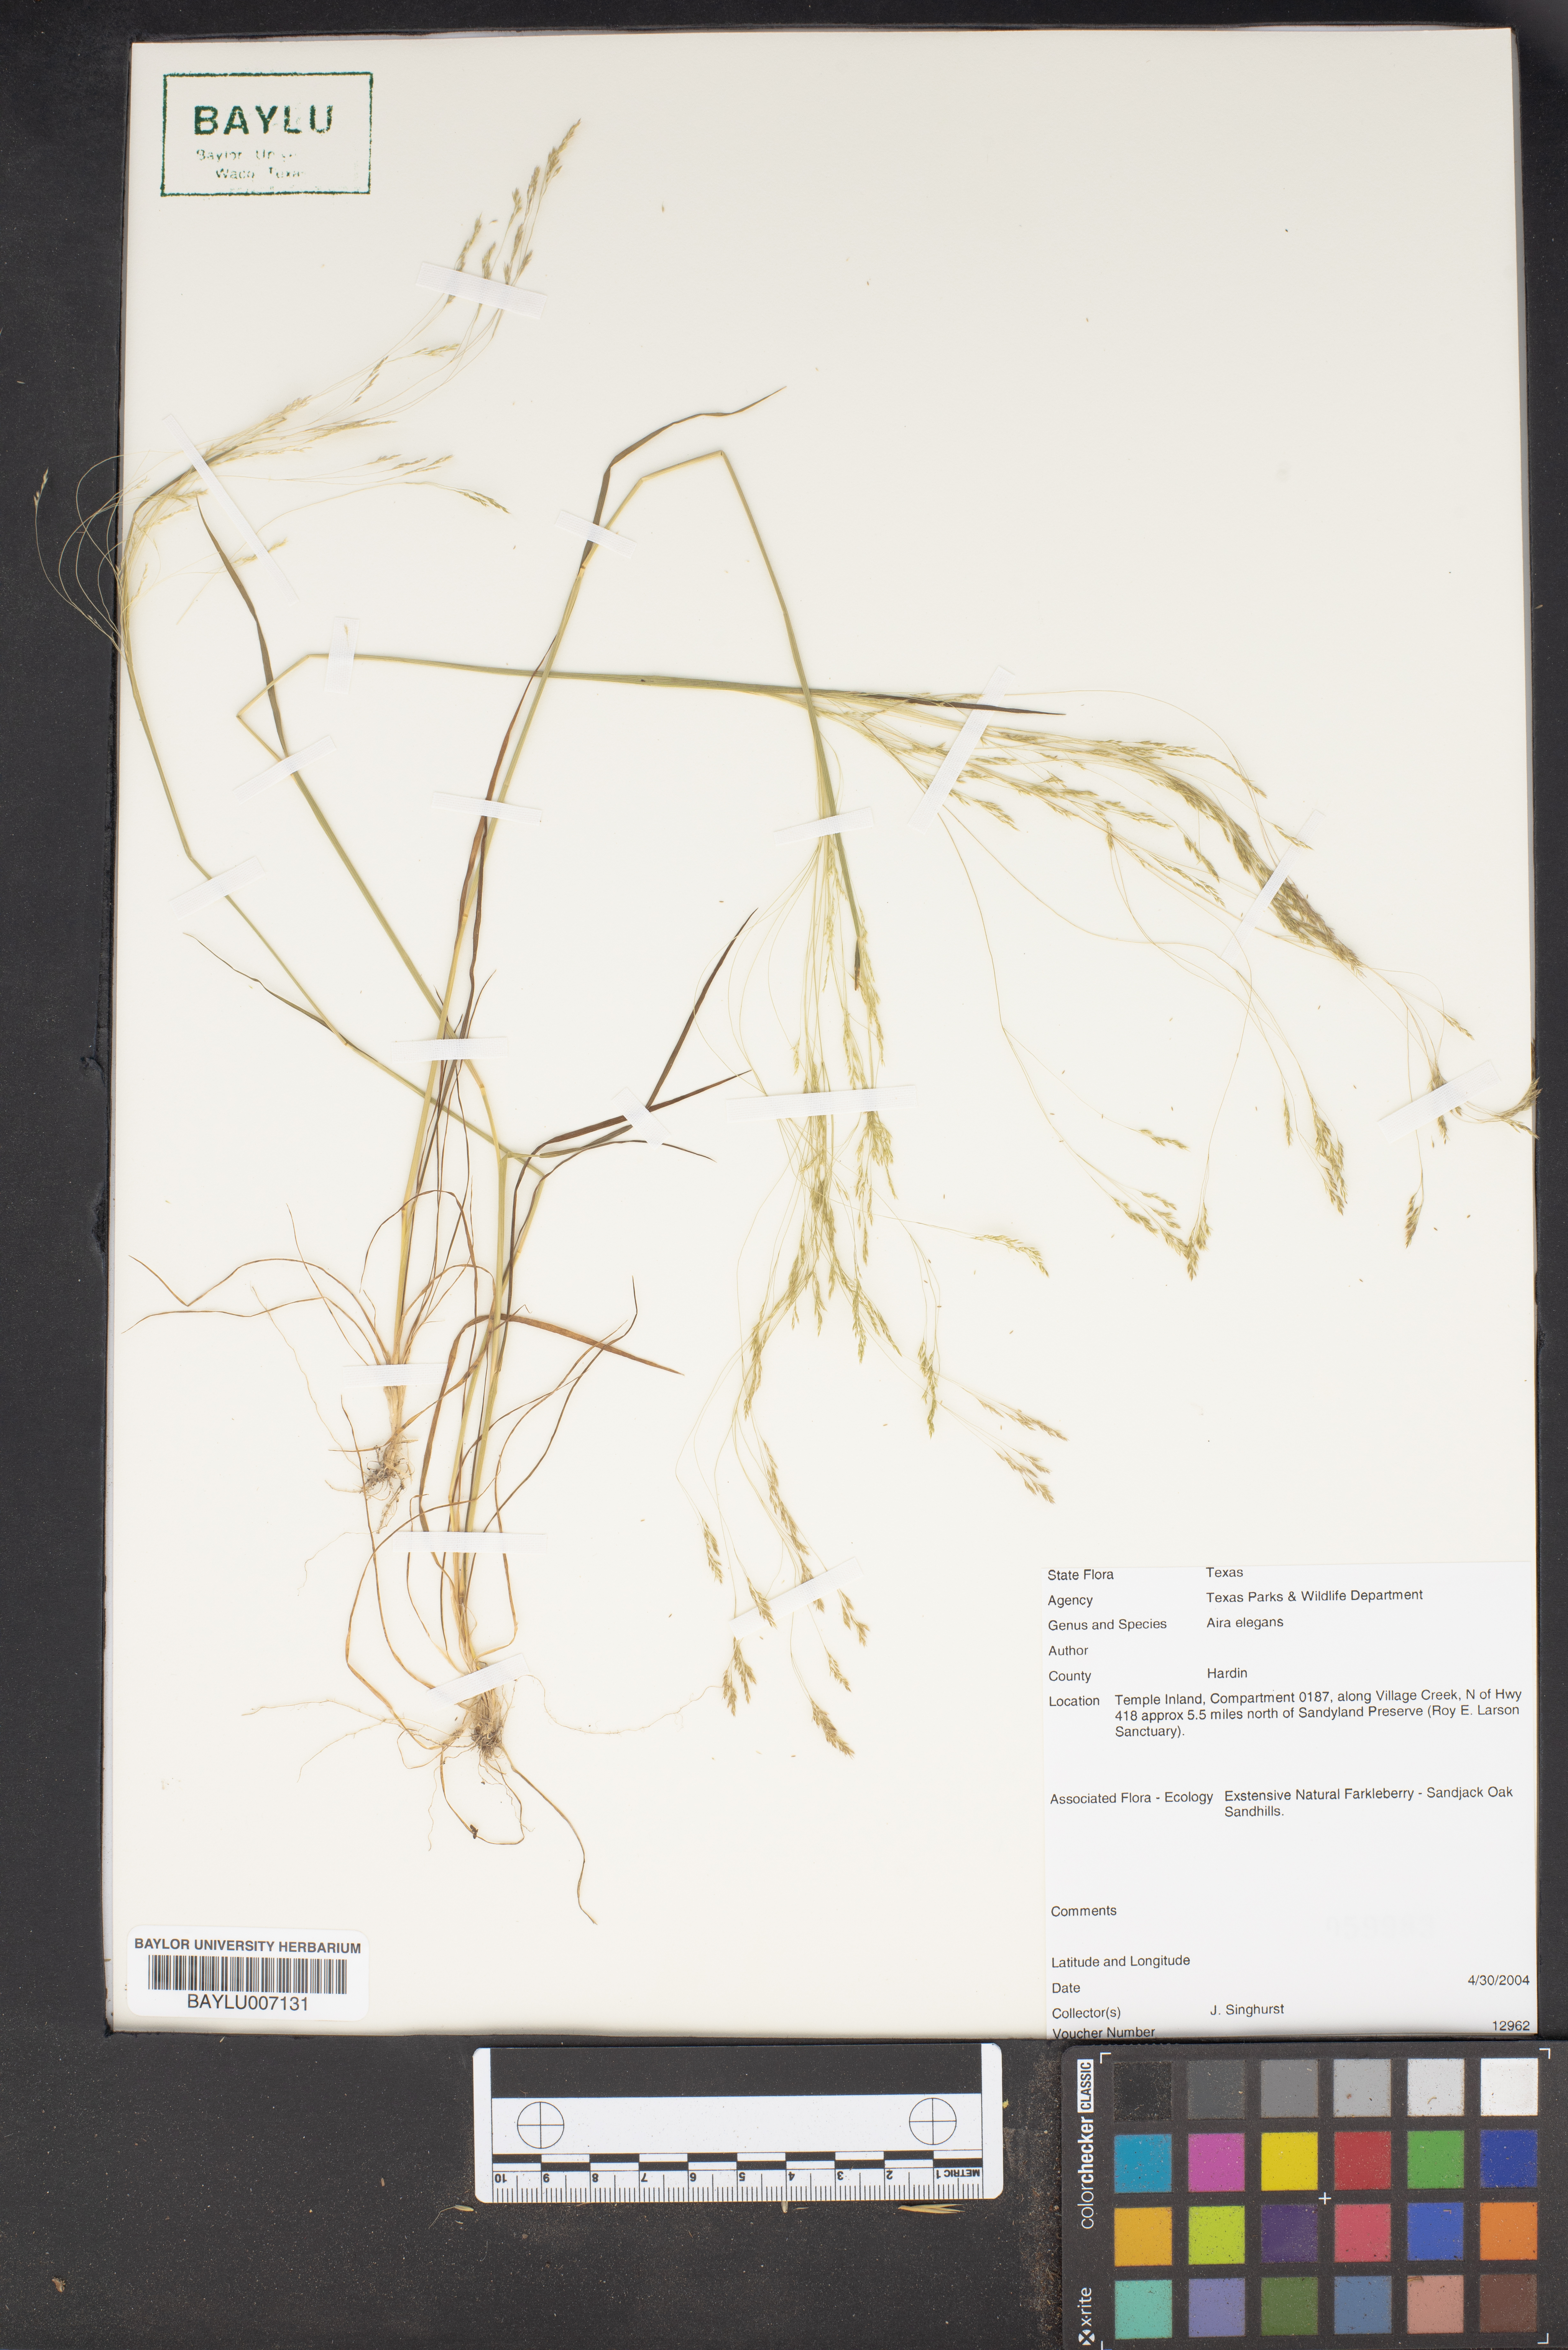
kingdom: Plantae
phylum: Tracheophyta
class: Liliopsida
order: Poales
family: Poaceae
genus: Aira
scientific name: Aira elegans
